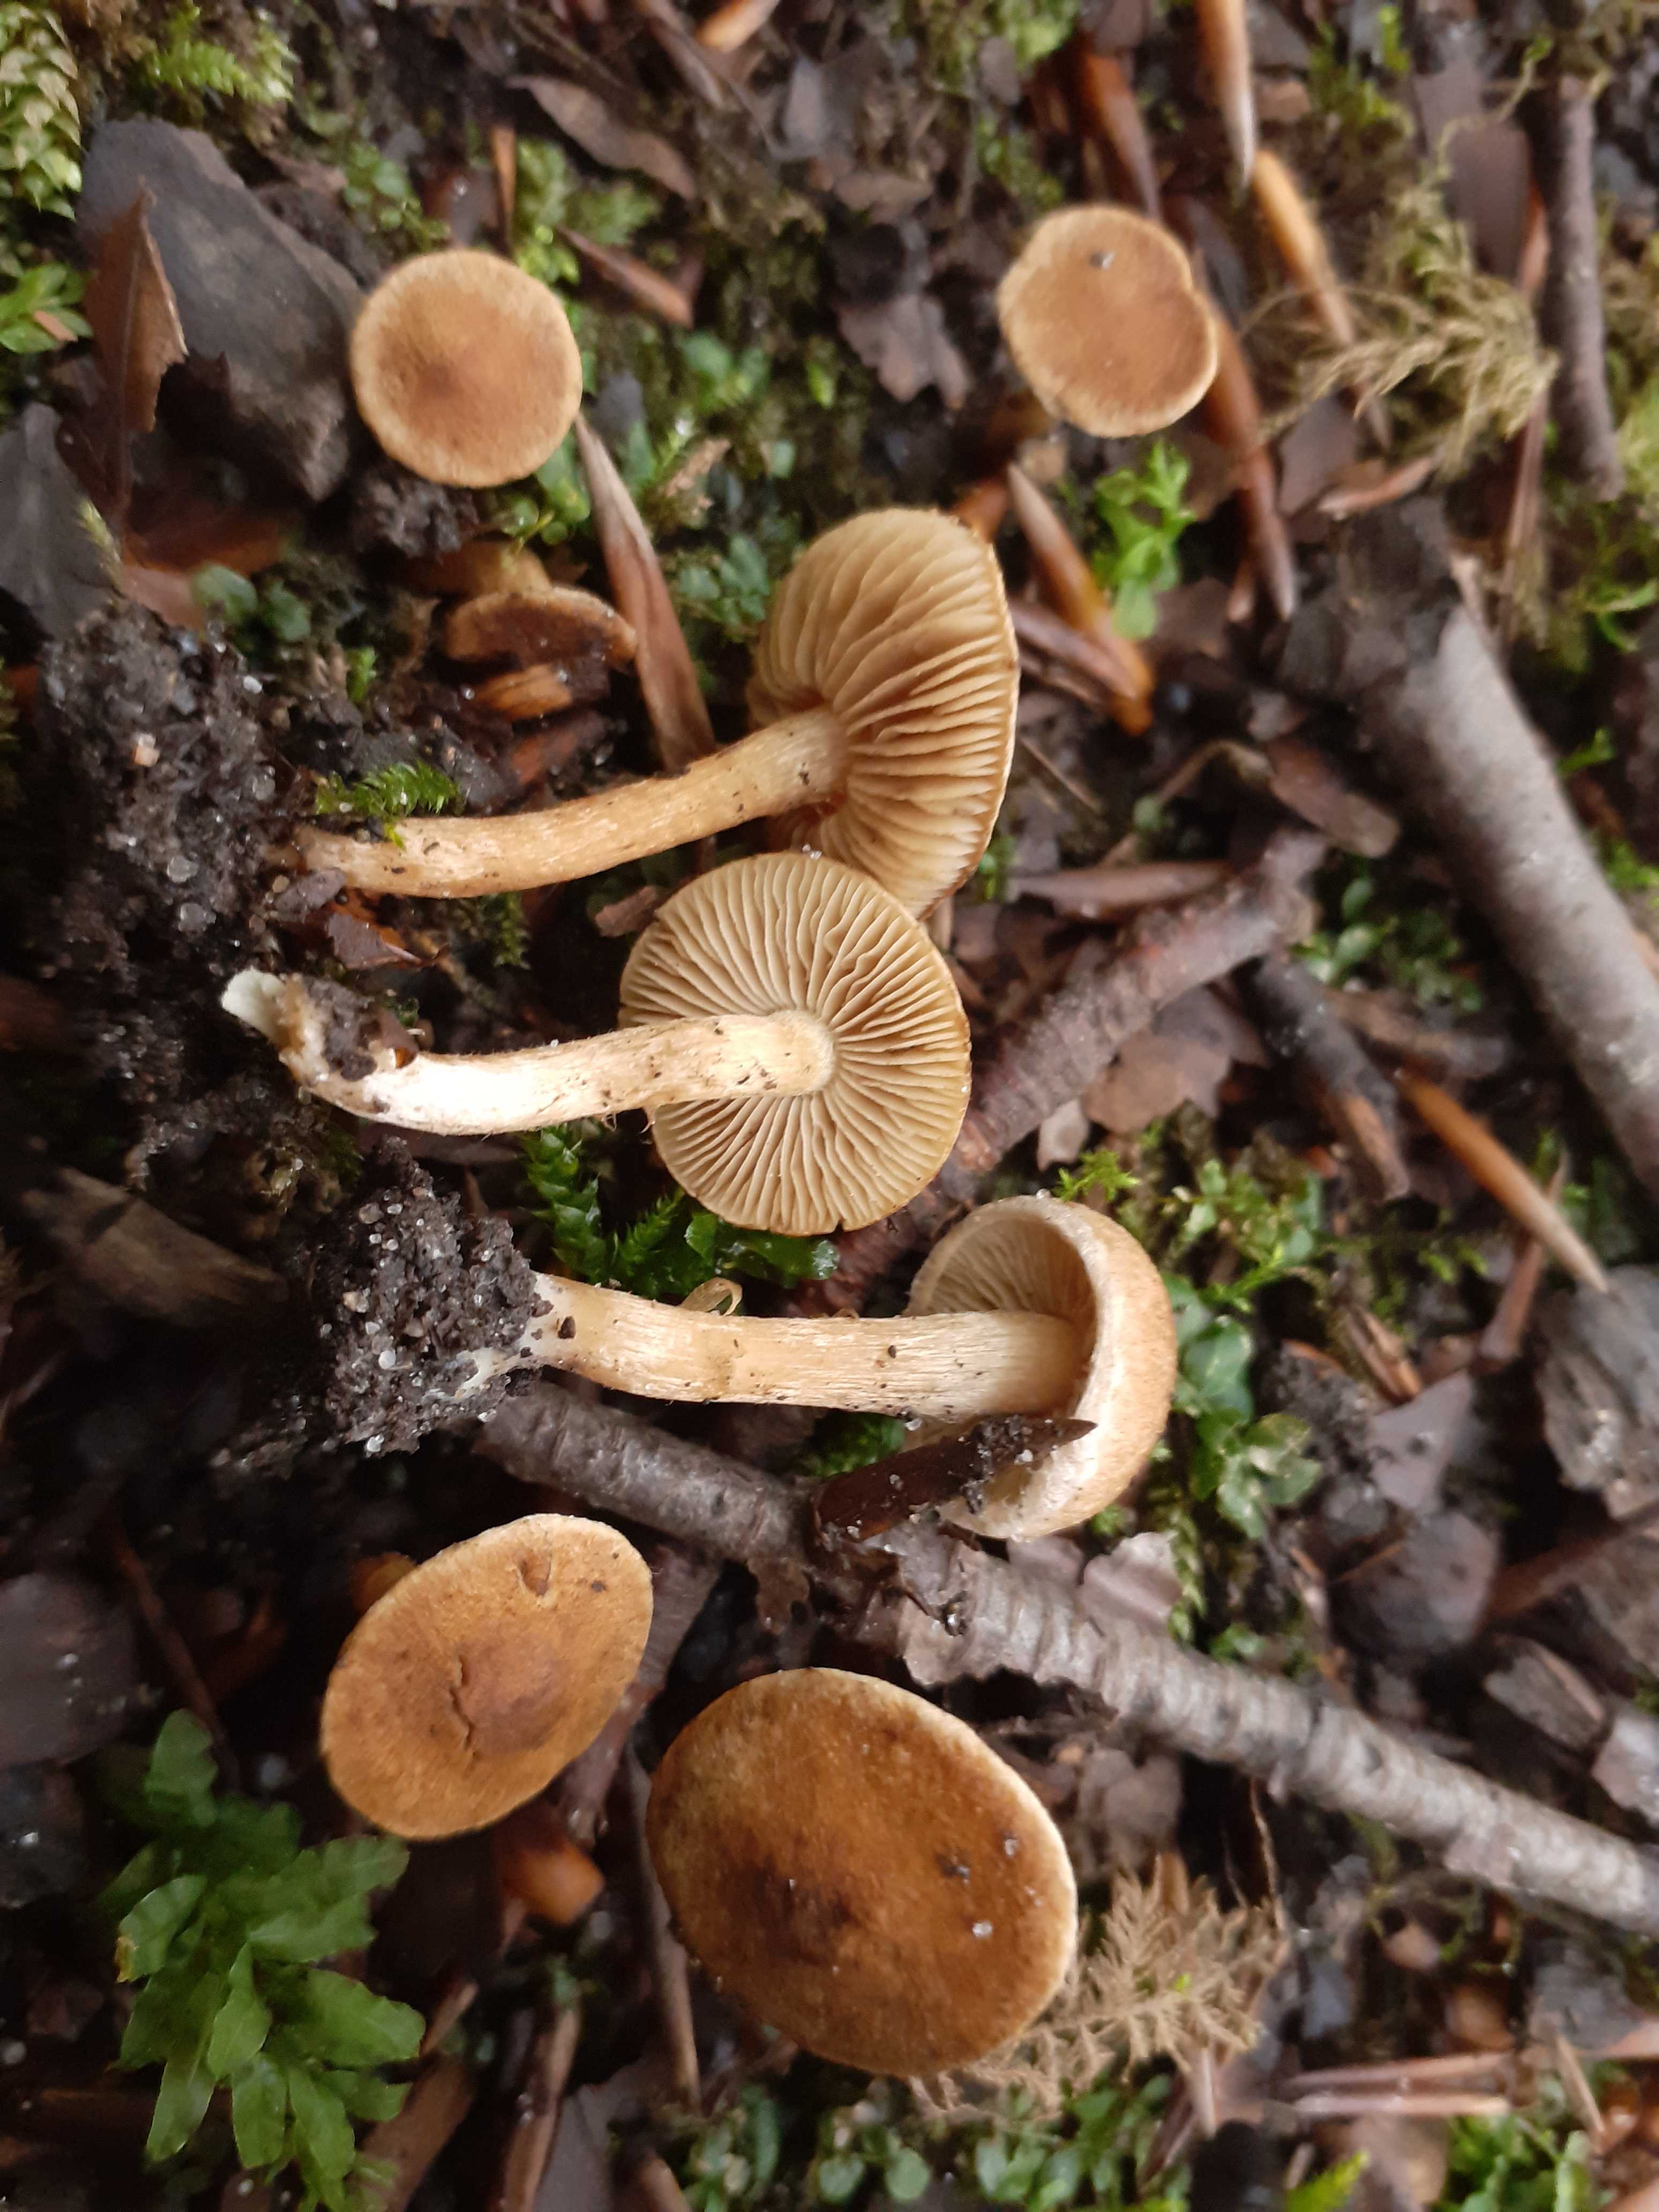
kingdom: Fungi
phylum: Basidiomycota
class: Agaricomycetes
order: Agaricales
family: Inocybaceae
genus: Mallocybe
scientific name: Mallocybe malenconii
